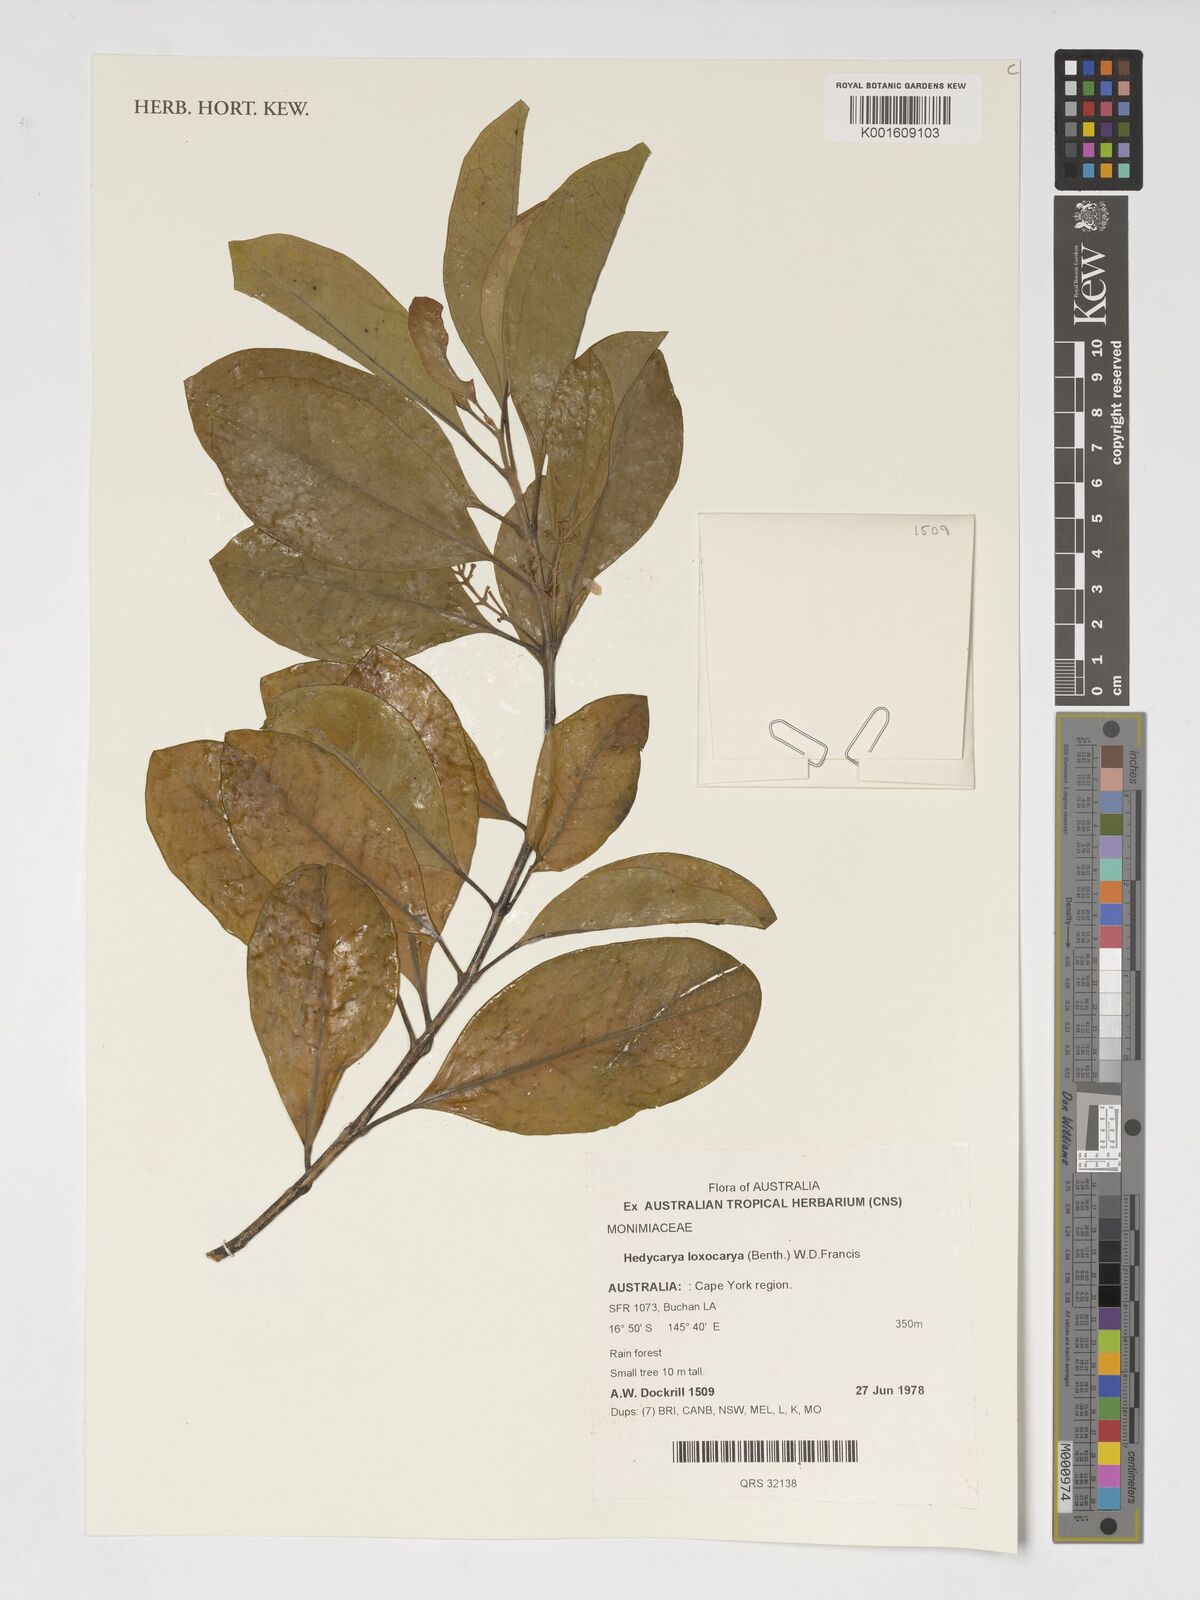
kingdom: Plantae
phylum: Tracheophyta
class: Magnoliopsida
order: Laurales
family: Monimiaceae
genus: Hedycarya
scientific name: Hedycarya loxocarya
